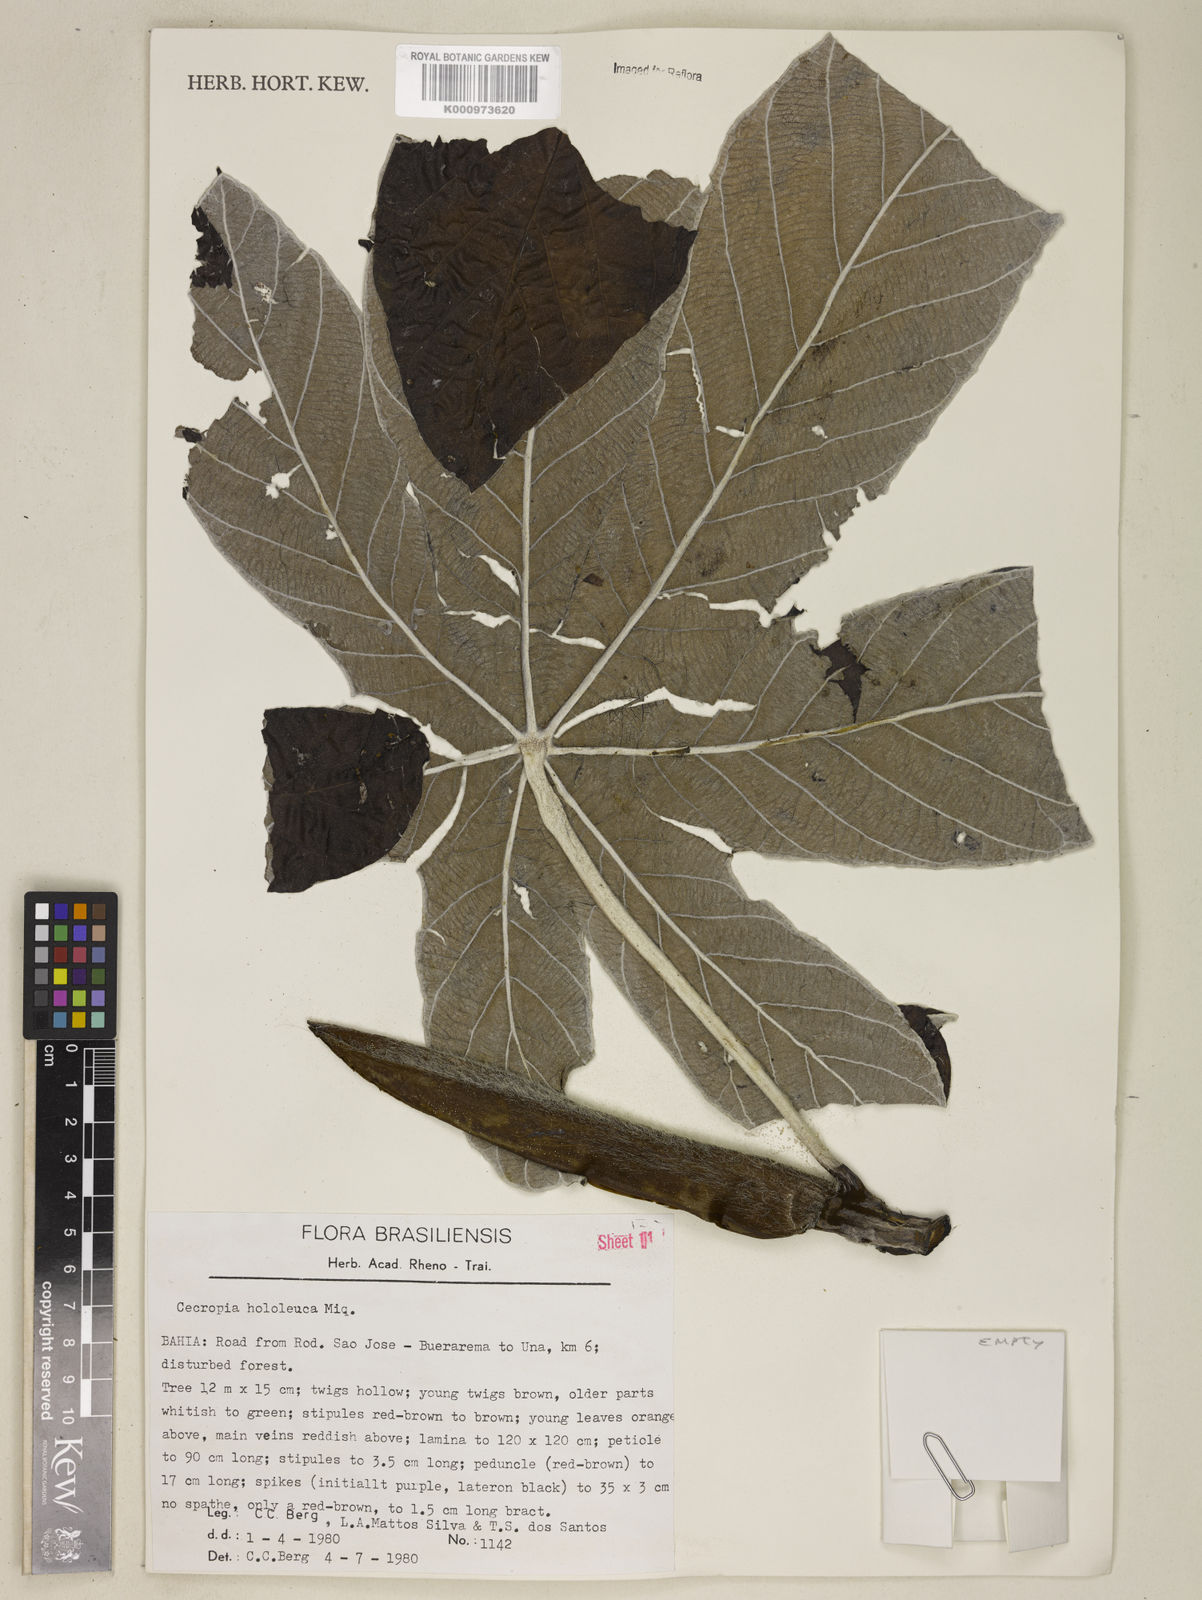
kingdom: Plantae
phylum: Tracheophyta
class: Magnoliopsida
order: Rosales
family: Urticaceae
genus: Cecropia
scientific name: Cecropia hololeuca
